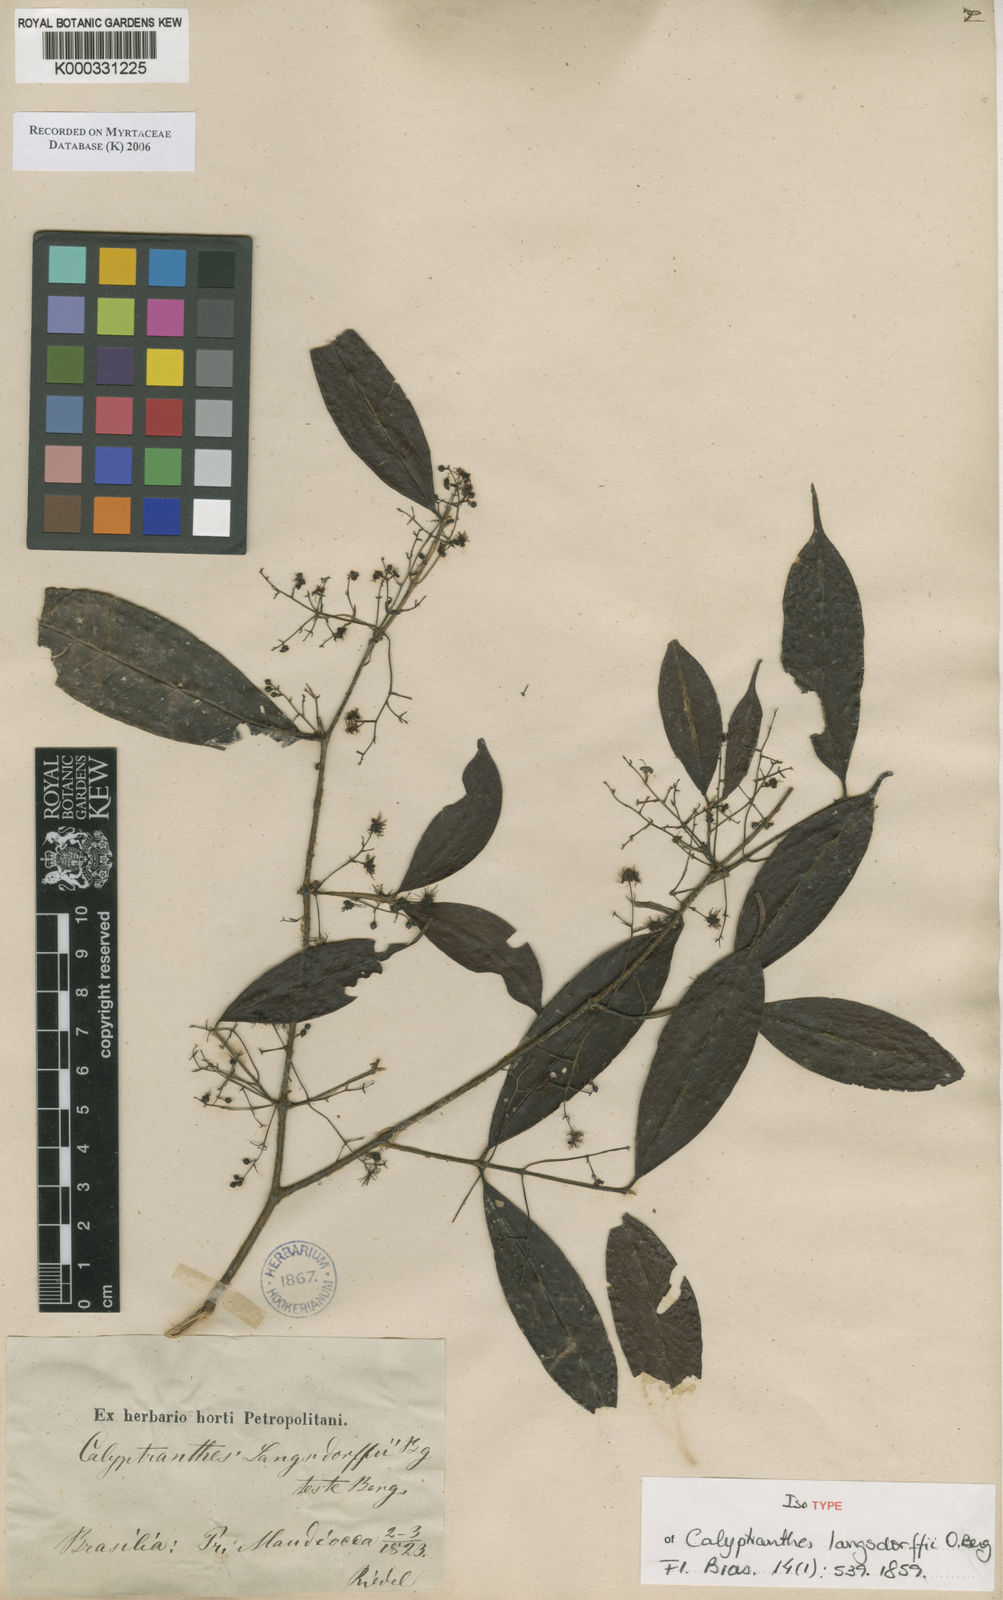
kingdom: Plantae
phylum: Tracheophyta
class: Magnoliopsida
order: Myrtales
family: Myrtaceae
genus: Myrcia
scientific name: Myrcia marliereana
